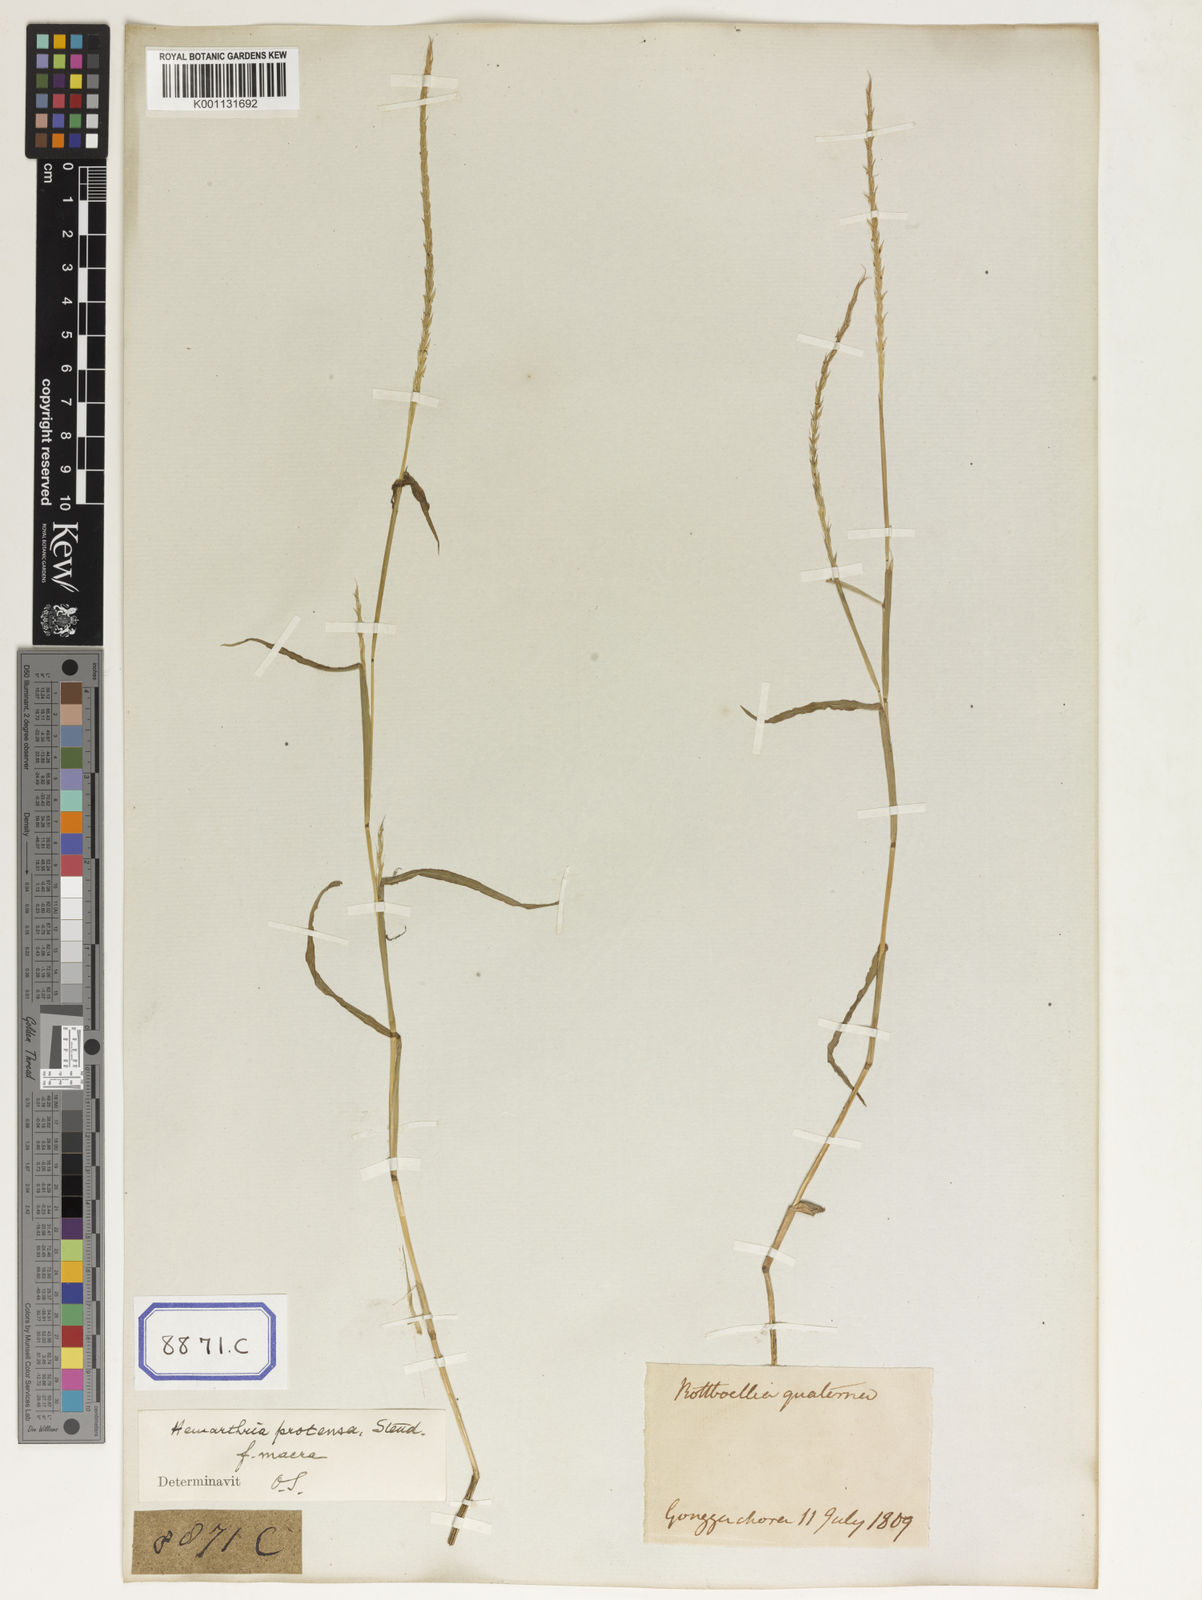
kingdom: Plantae
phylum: Tracheophyta
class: Liliopsida
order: Poales
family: Poaceae
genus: Hemarthria
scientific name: Hemarthria
